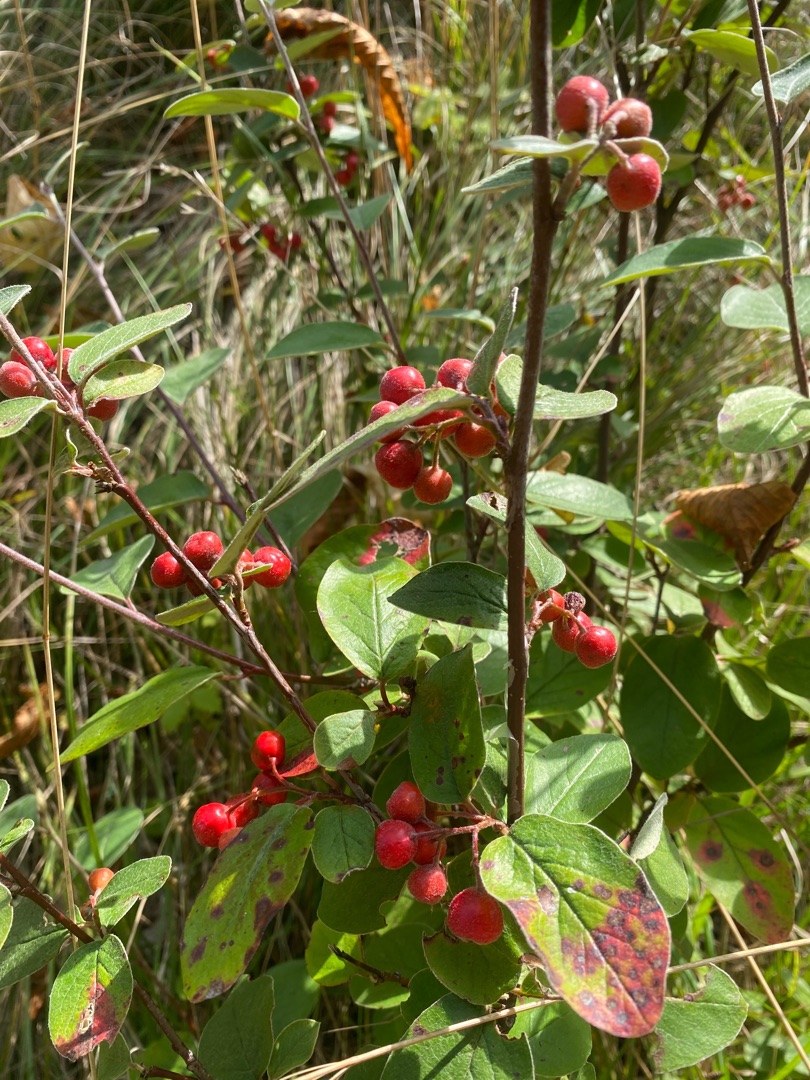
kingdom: Plantae
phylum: Tracheophyta
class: Magnoliopsida
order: Rosales
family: Rosaceae
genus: Cotoneaster
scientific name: Cotoneaster tomentosus
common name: Filthåret dværgmispel
